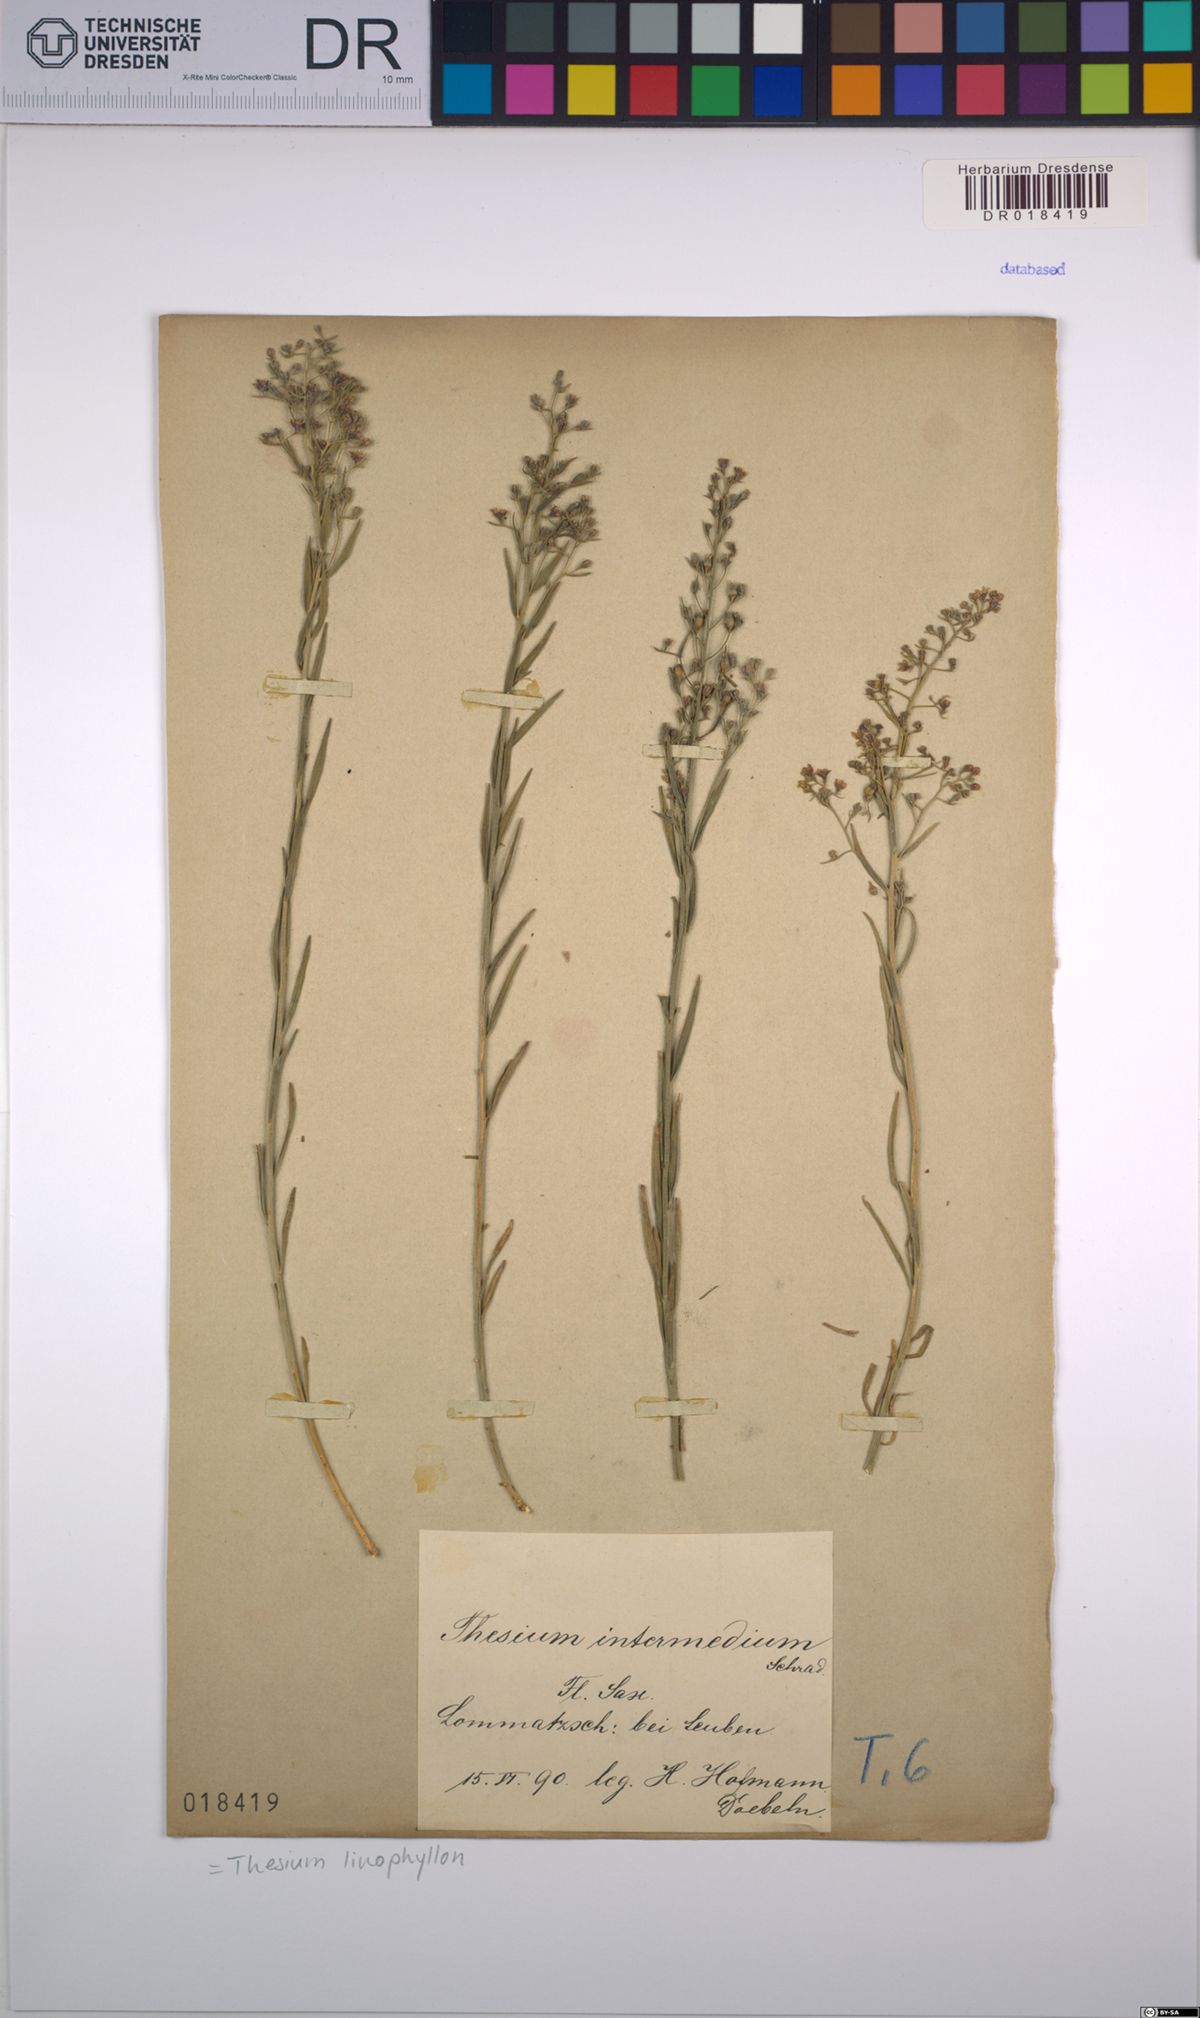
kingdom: Plantae
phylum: Tracheophyta
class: Magnoliopsida
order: Santalales
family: Thesiaceae
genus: Thesium
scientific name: Thesium linophyllon
